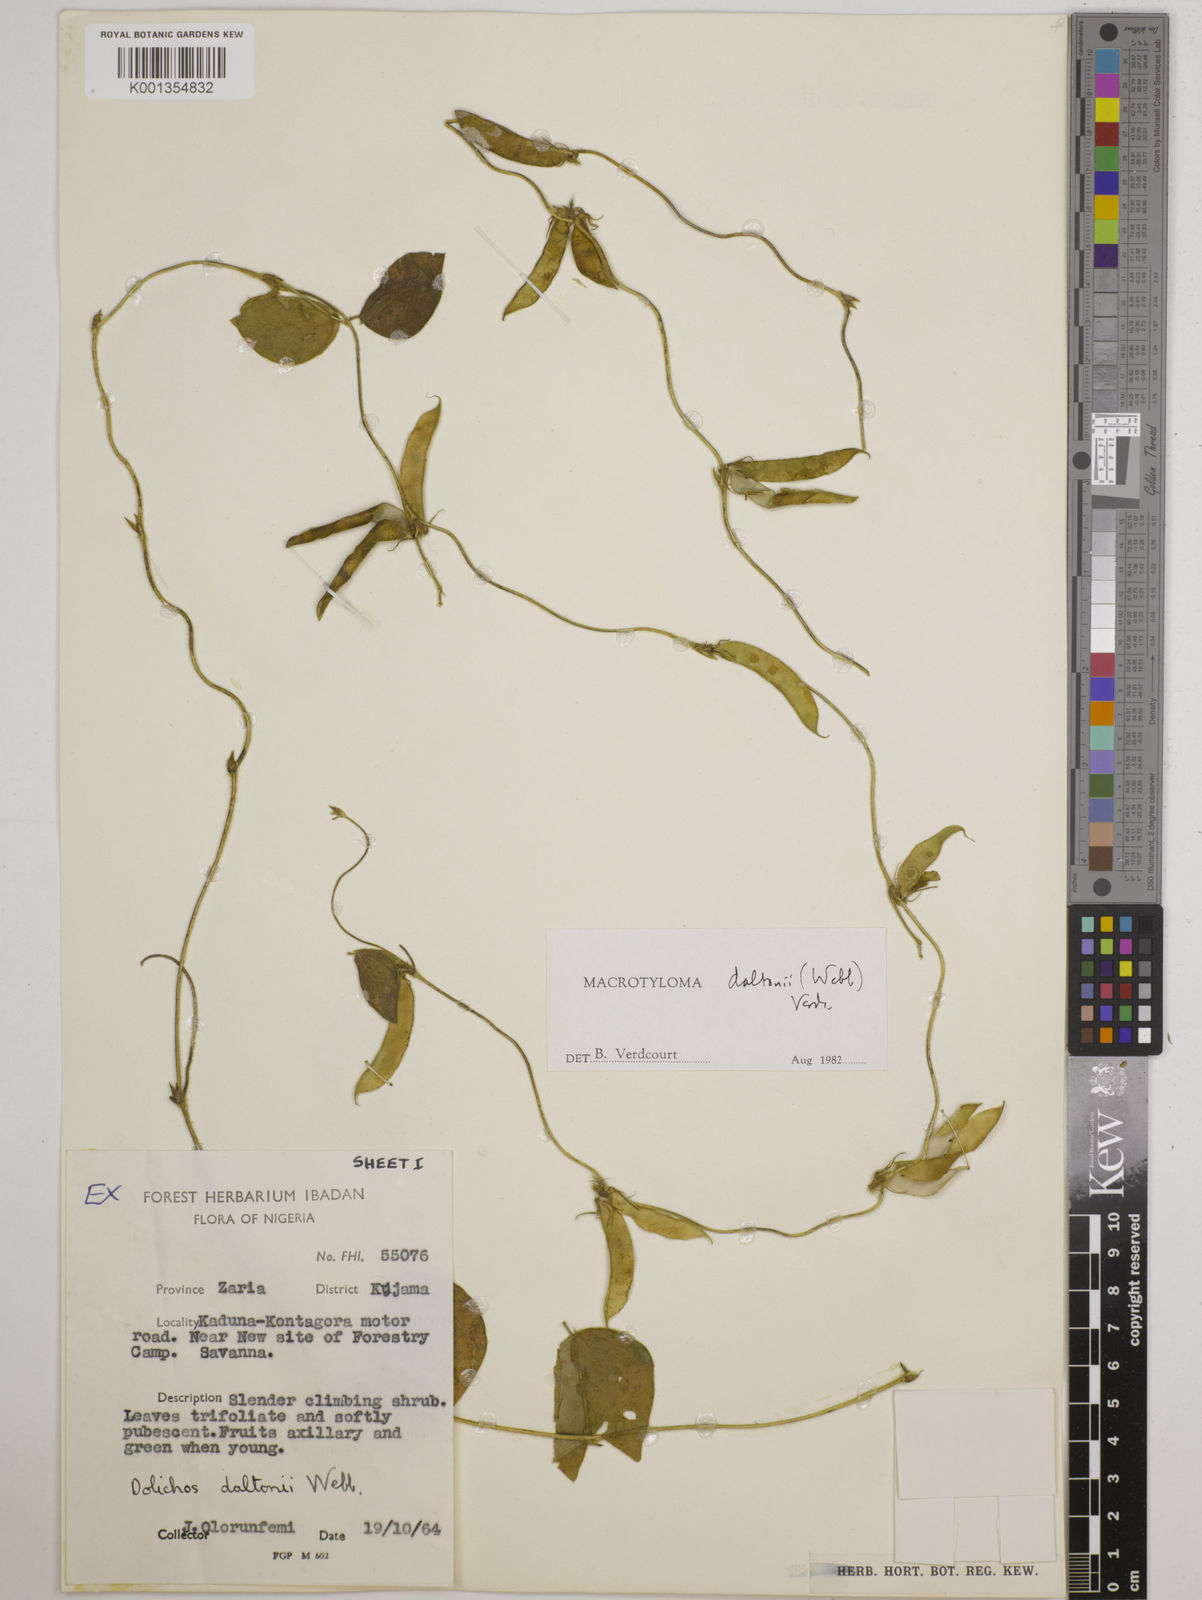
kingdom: Plantae
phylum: Tracheophyta
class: Magnoliopsida
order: Fabales
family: Fabaceae
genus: Macrotyloma
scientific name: Macrotyloma daltonii
